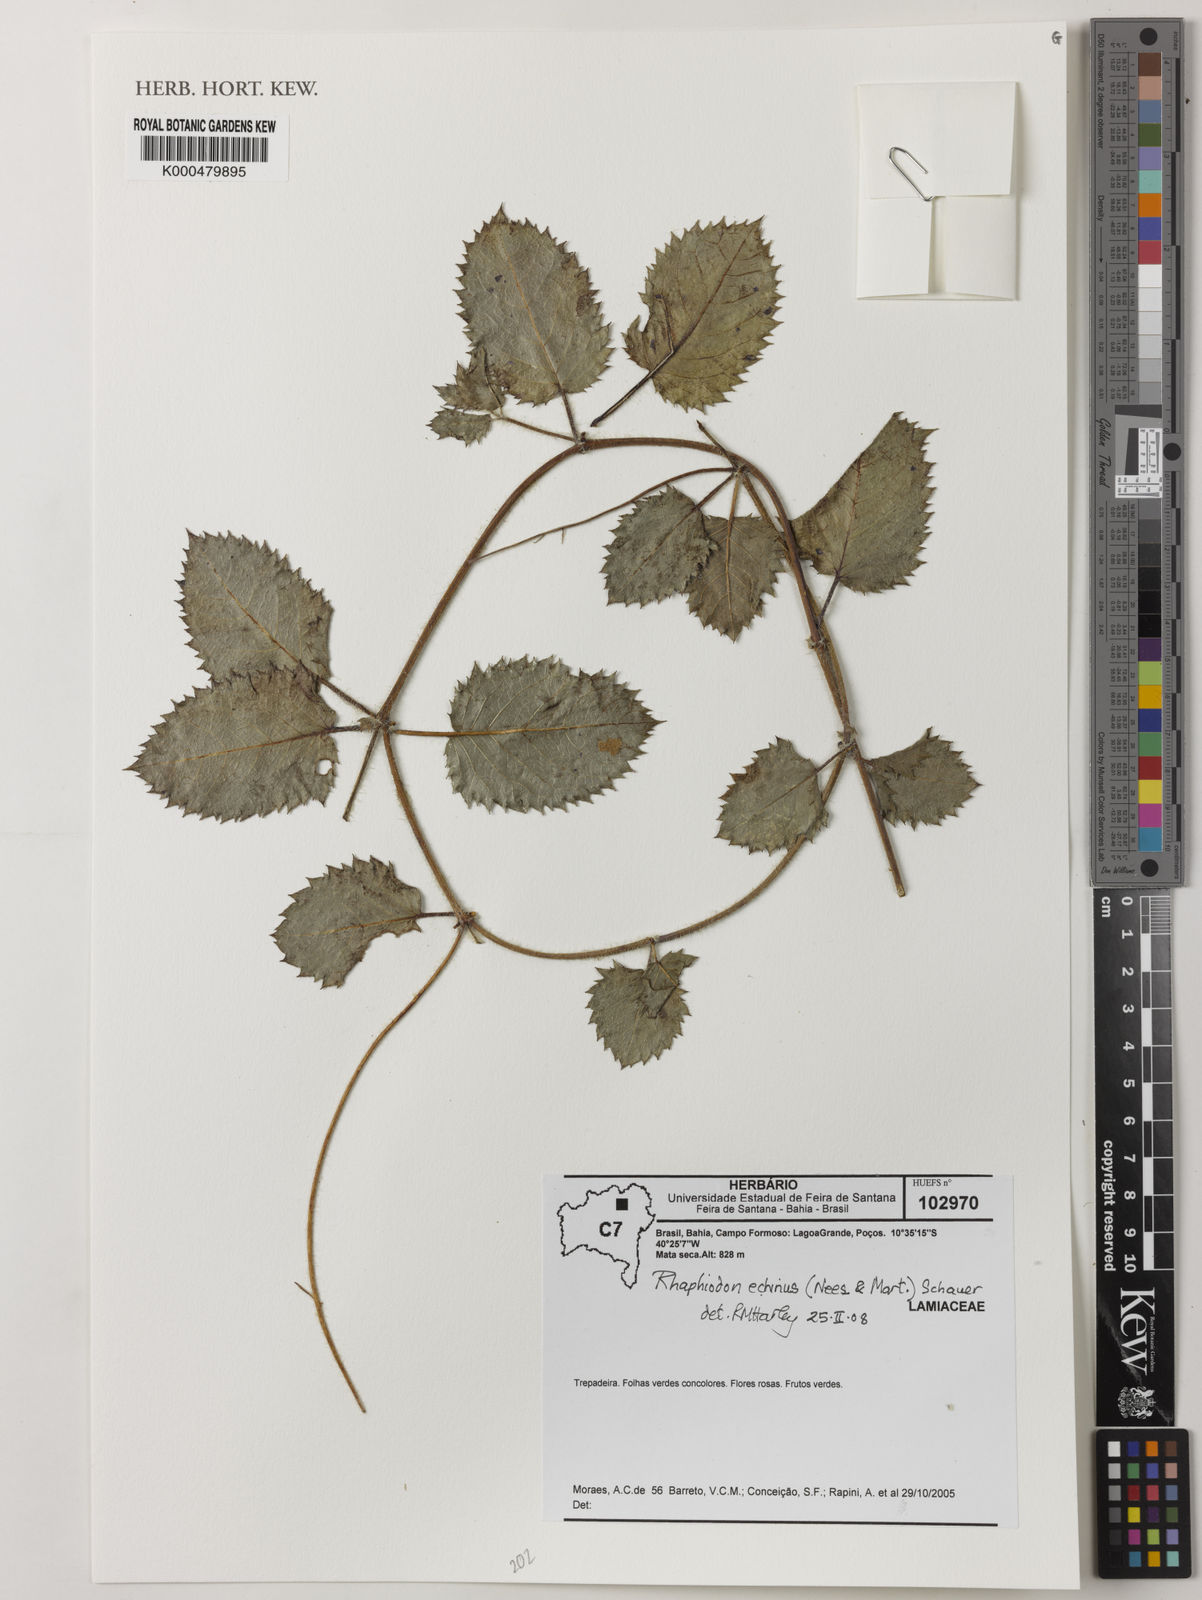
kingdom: Plantae
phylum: Tracheophyta
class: Magnoliopsida
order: Lamiales
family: Lamiaceae
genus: Rhaphiodon
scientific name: Rhaphiodon echinus
